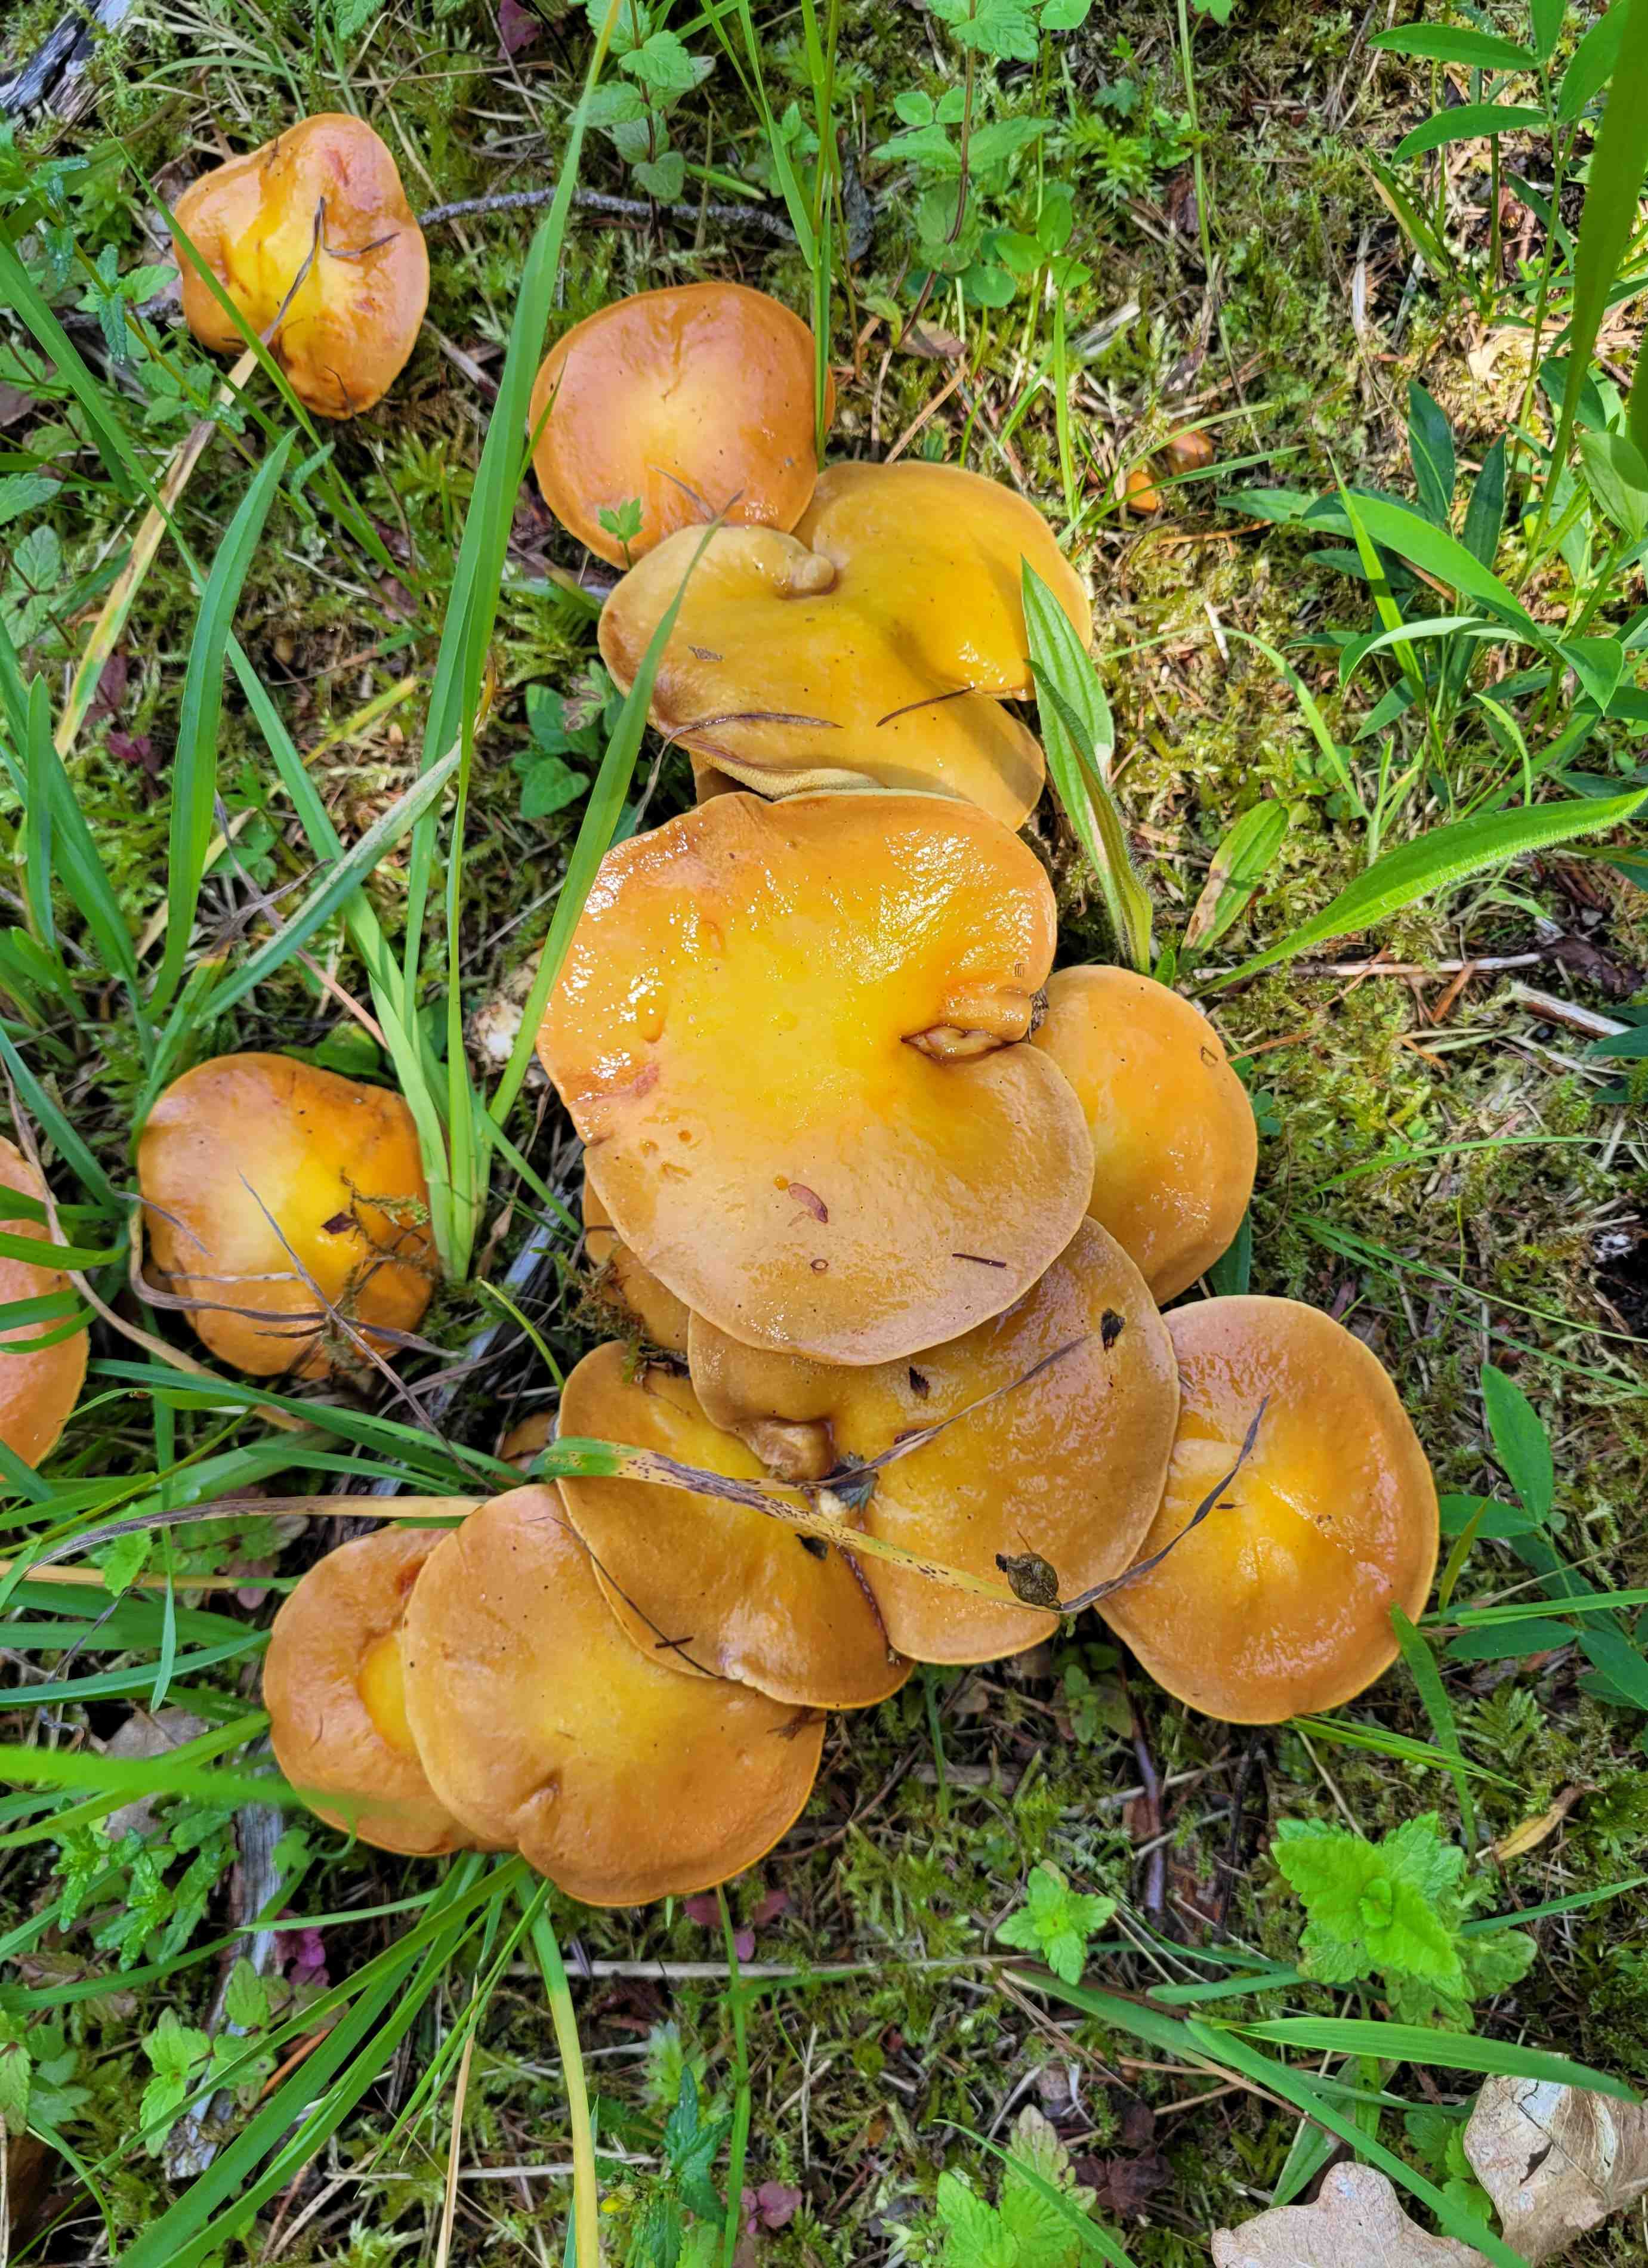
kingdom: Fungi
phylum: Basidiomycota
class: Agaricomycetes
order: Boletales
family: Suillaceae
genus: Suillus
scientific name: Suillus
